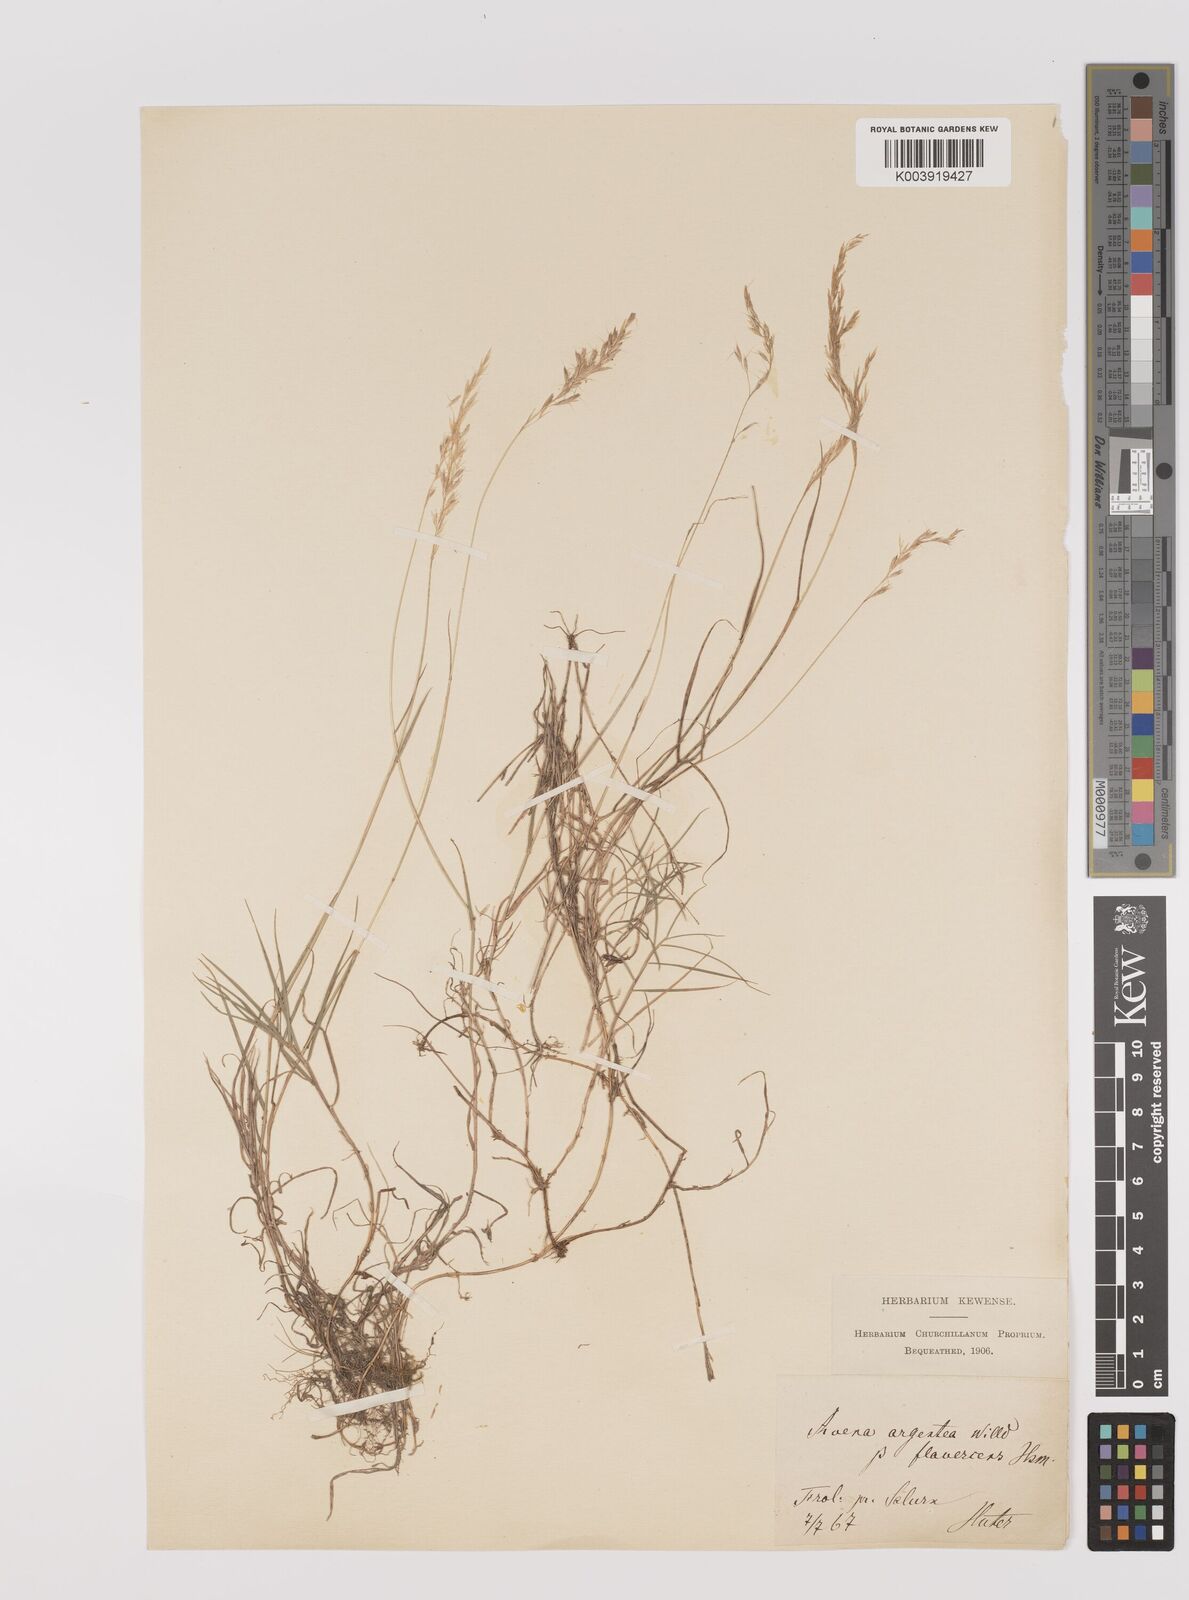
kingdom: Plantae
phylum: Tracheophyta
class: Liliopsida
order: Poales
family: Poaceae
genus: Trisetum
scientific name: Trisetum argenteum
